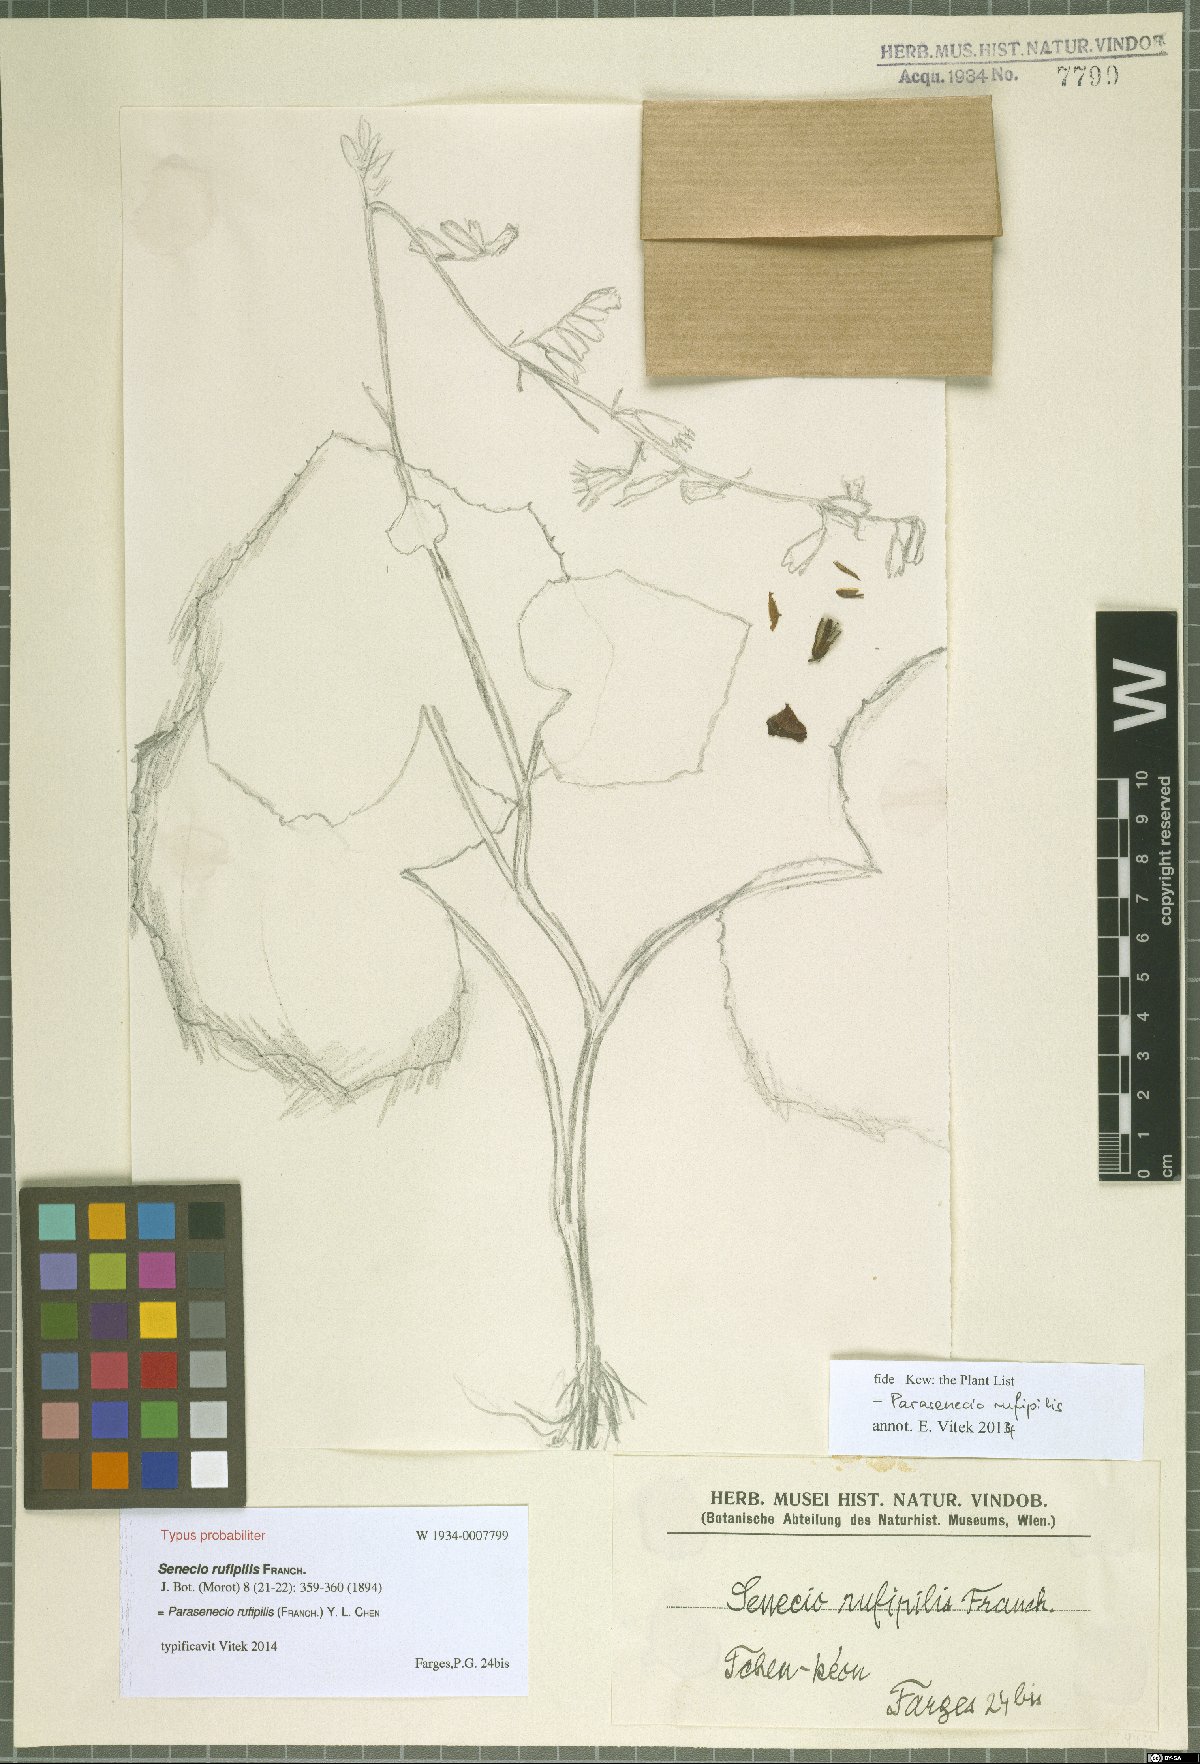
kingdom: Plantae
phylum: Tracheophyta
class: Magnoliopsida
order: Asterales
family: Asteraceae
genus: Parasenecio
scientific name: Parasenecio rufipilis
